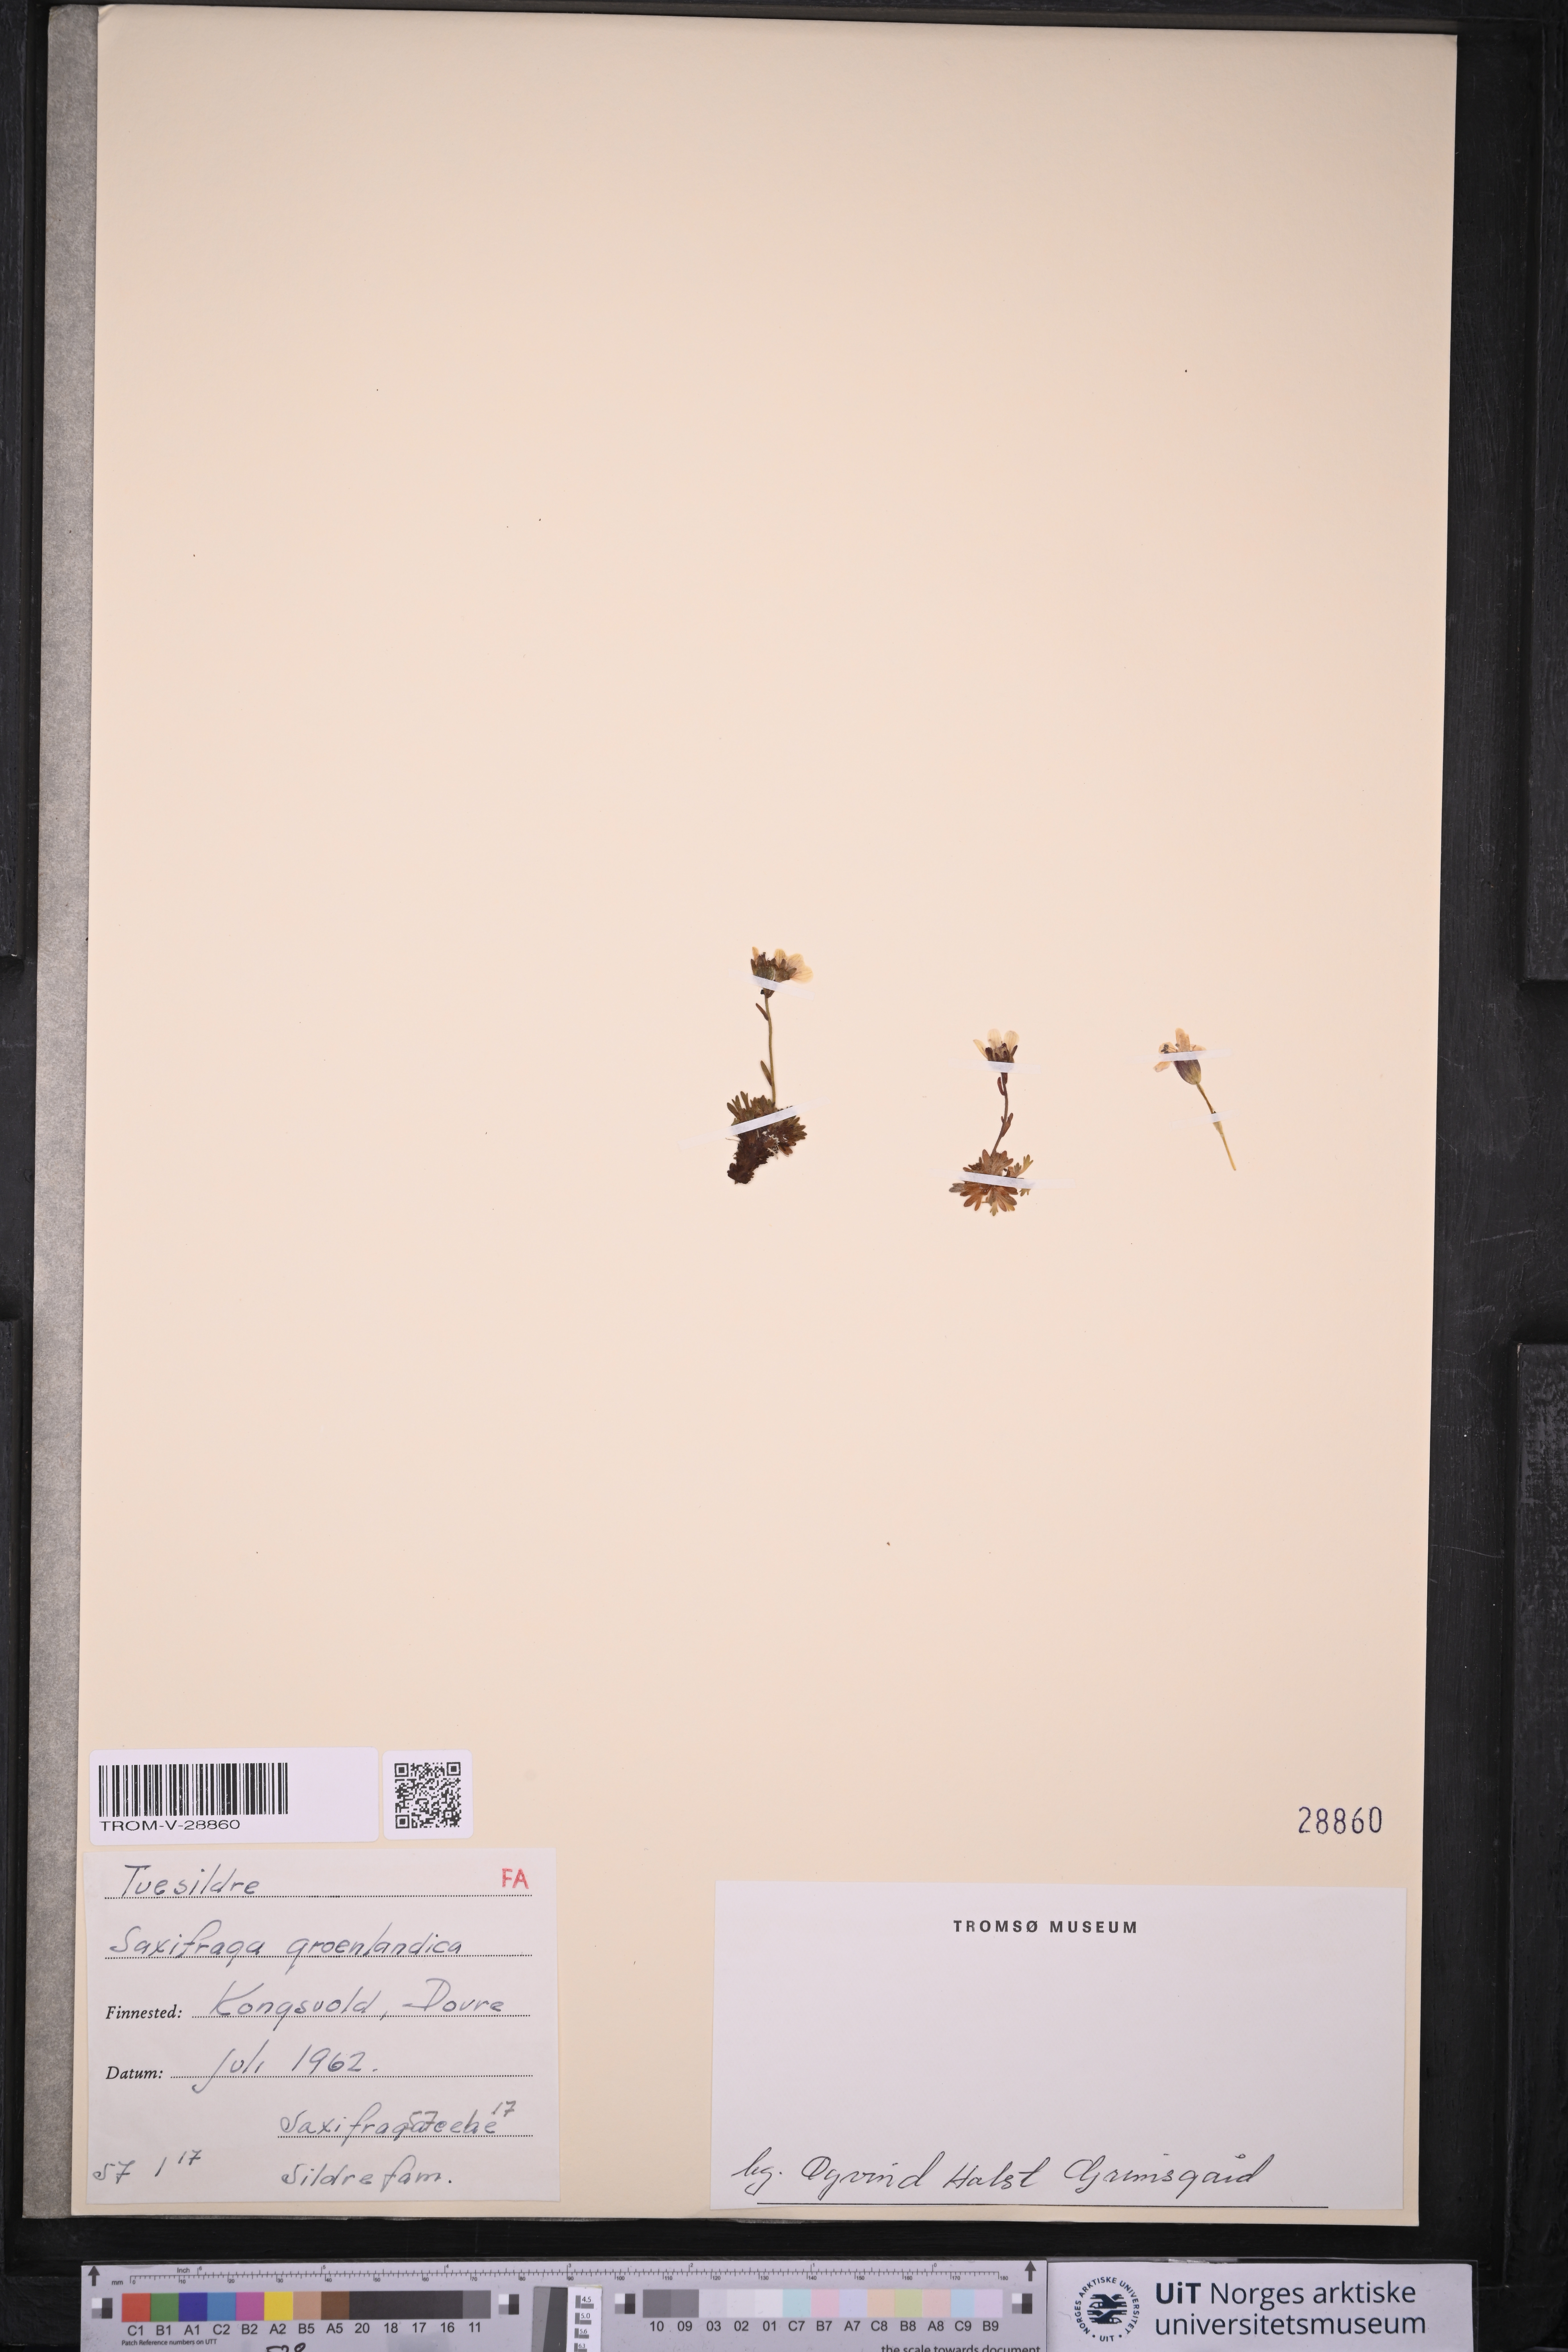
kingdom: Plantae
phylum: Tracheophyta
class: Magnoliopsida
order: Saxifragales
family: Saxifragaceae
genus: Saxifraga
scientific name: Saxifraga cespitosa
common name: Tufted saxifrage
